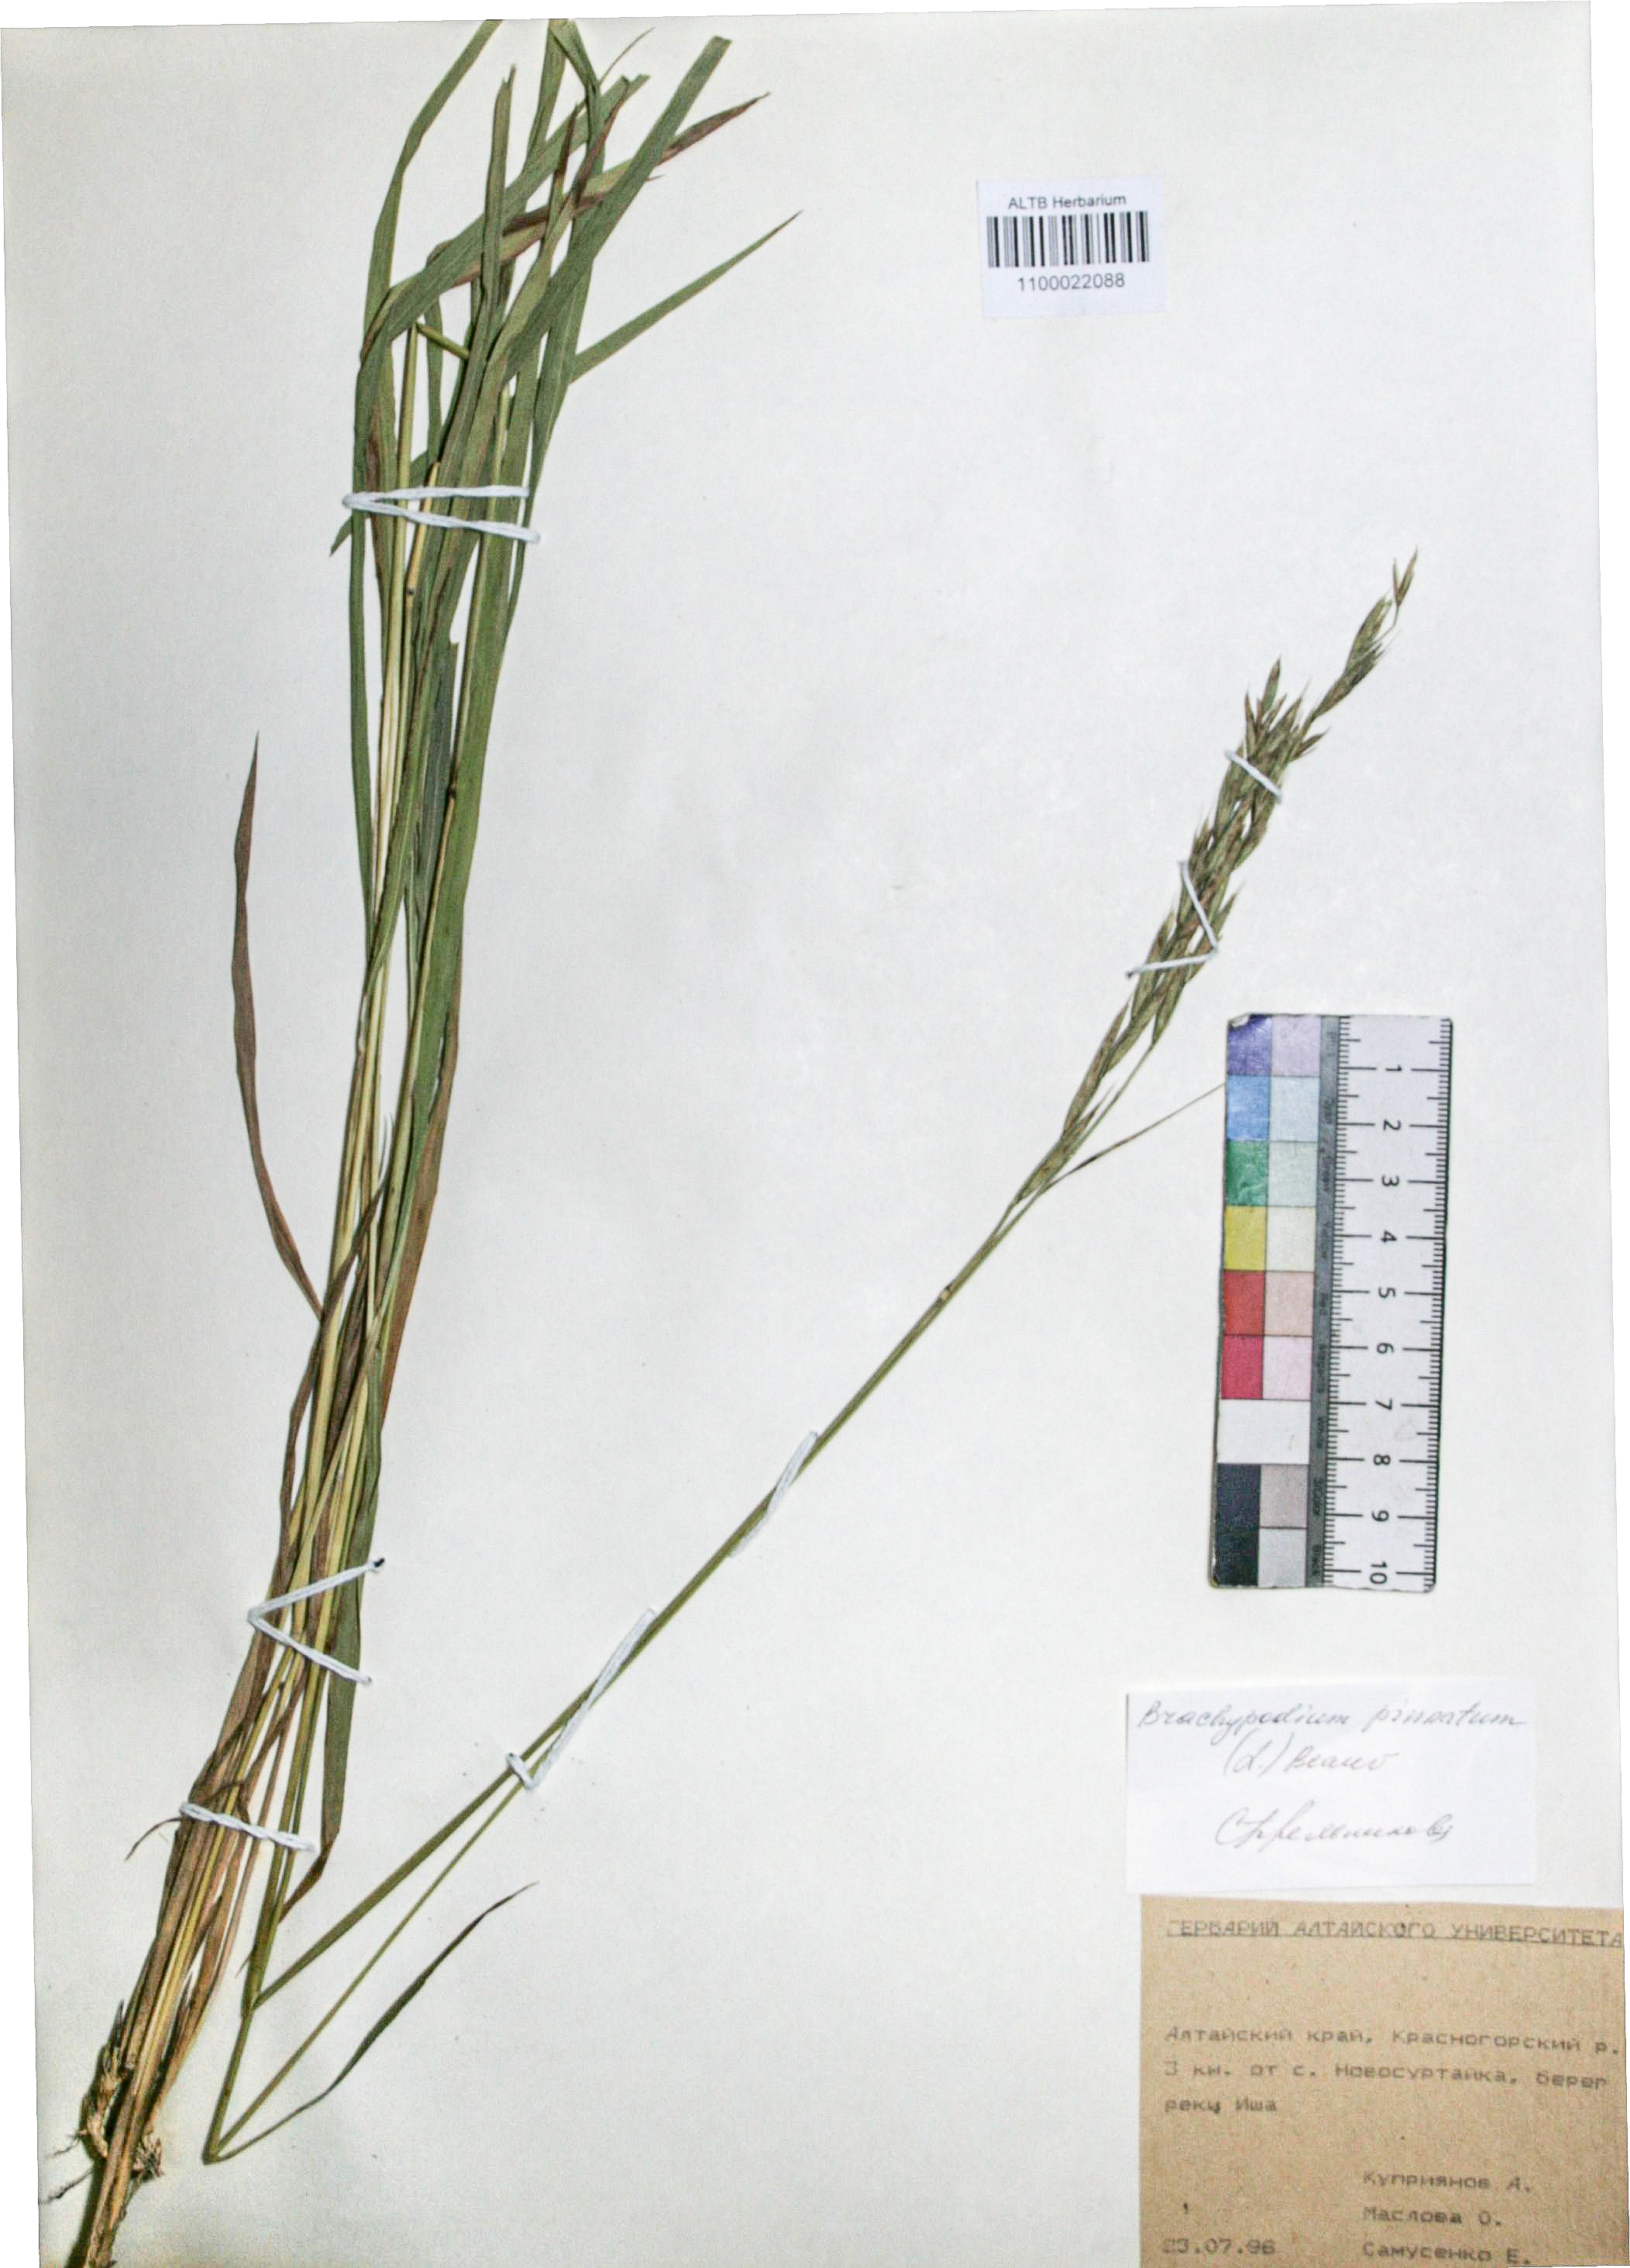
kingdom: Plantae
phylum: Tracheophyta
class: Liliopsida
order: Poales
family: Poaceae
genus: Brachypodium
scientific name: Brachypodium pinnatum
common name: Tor grass
